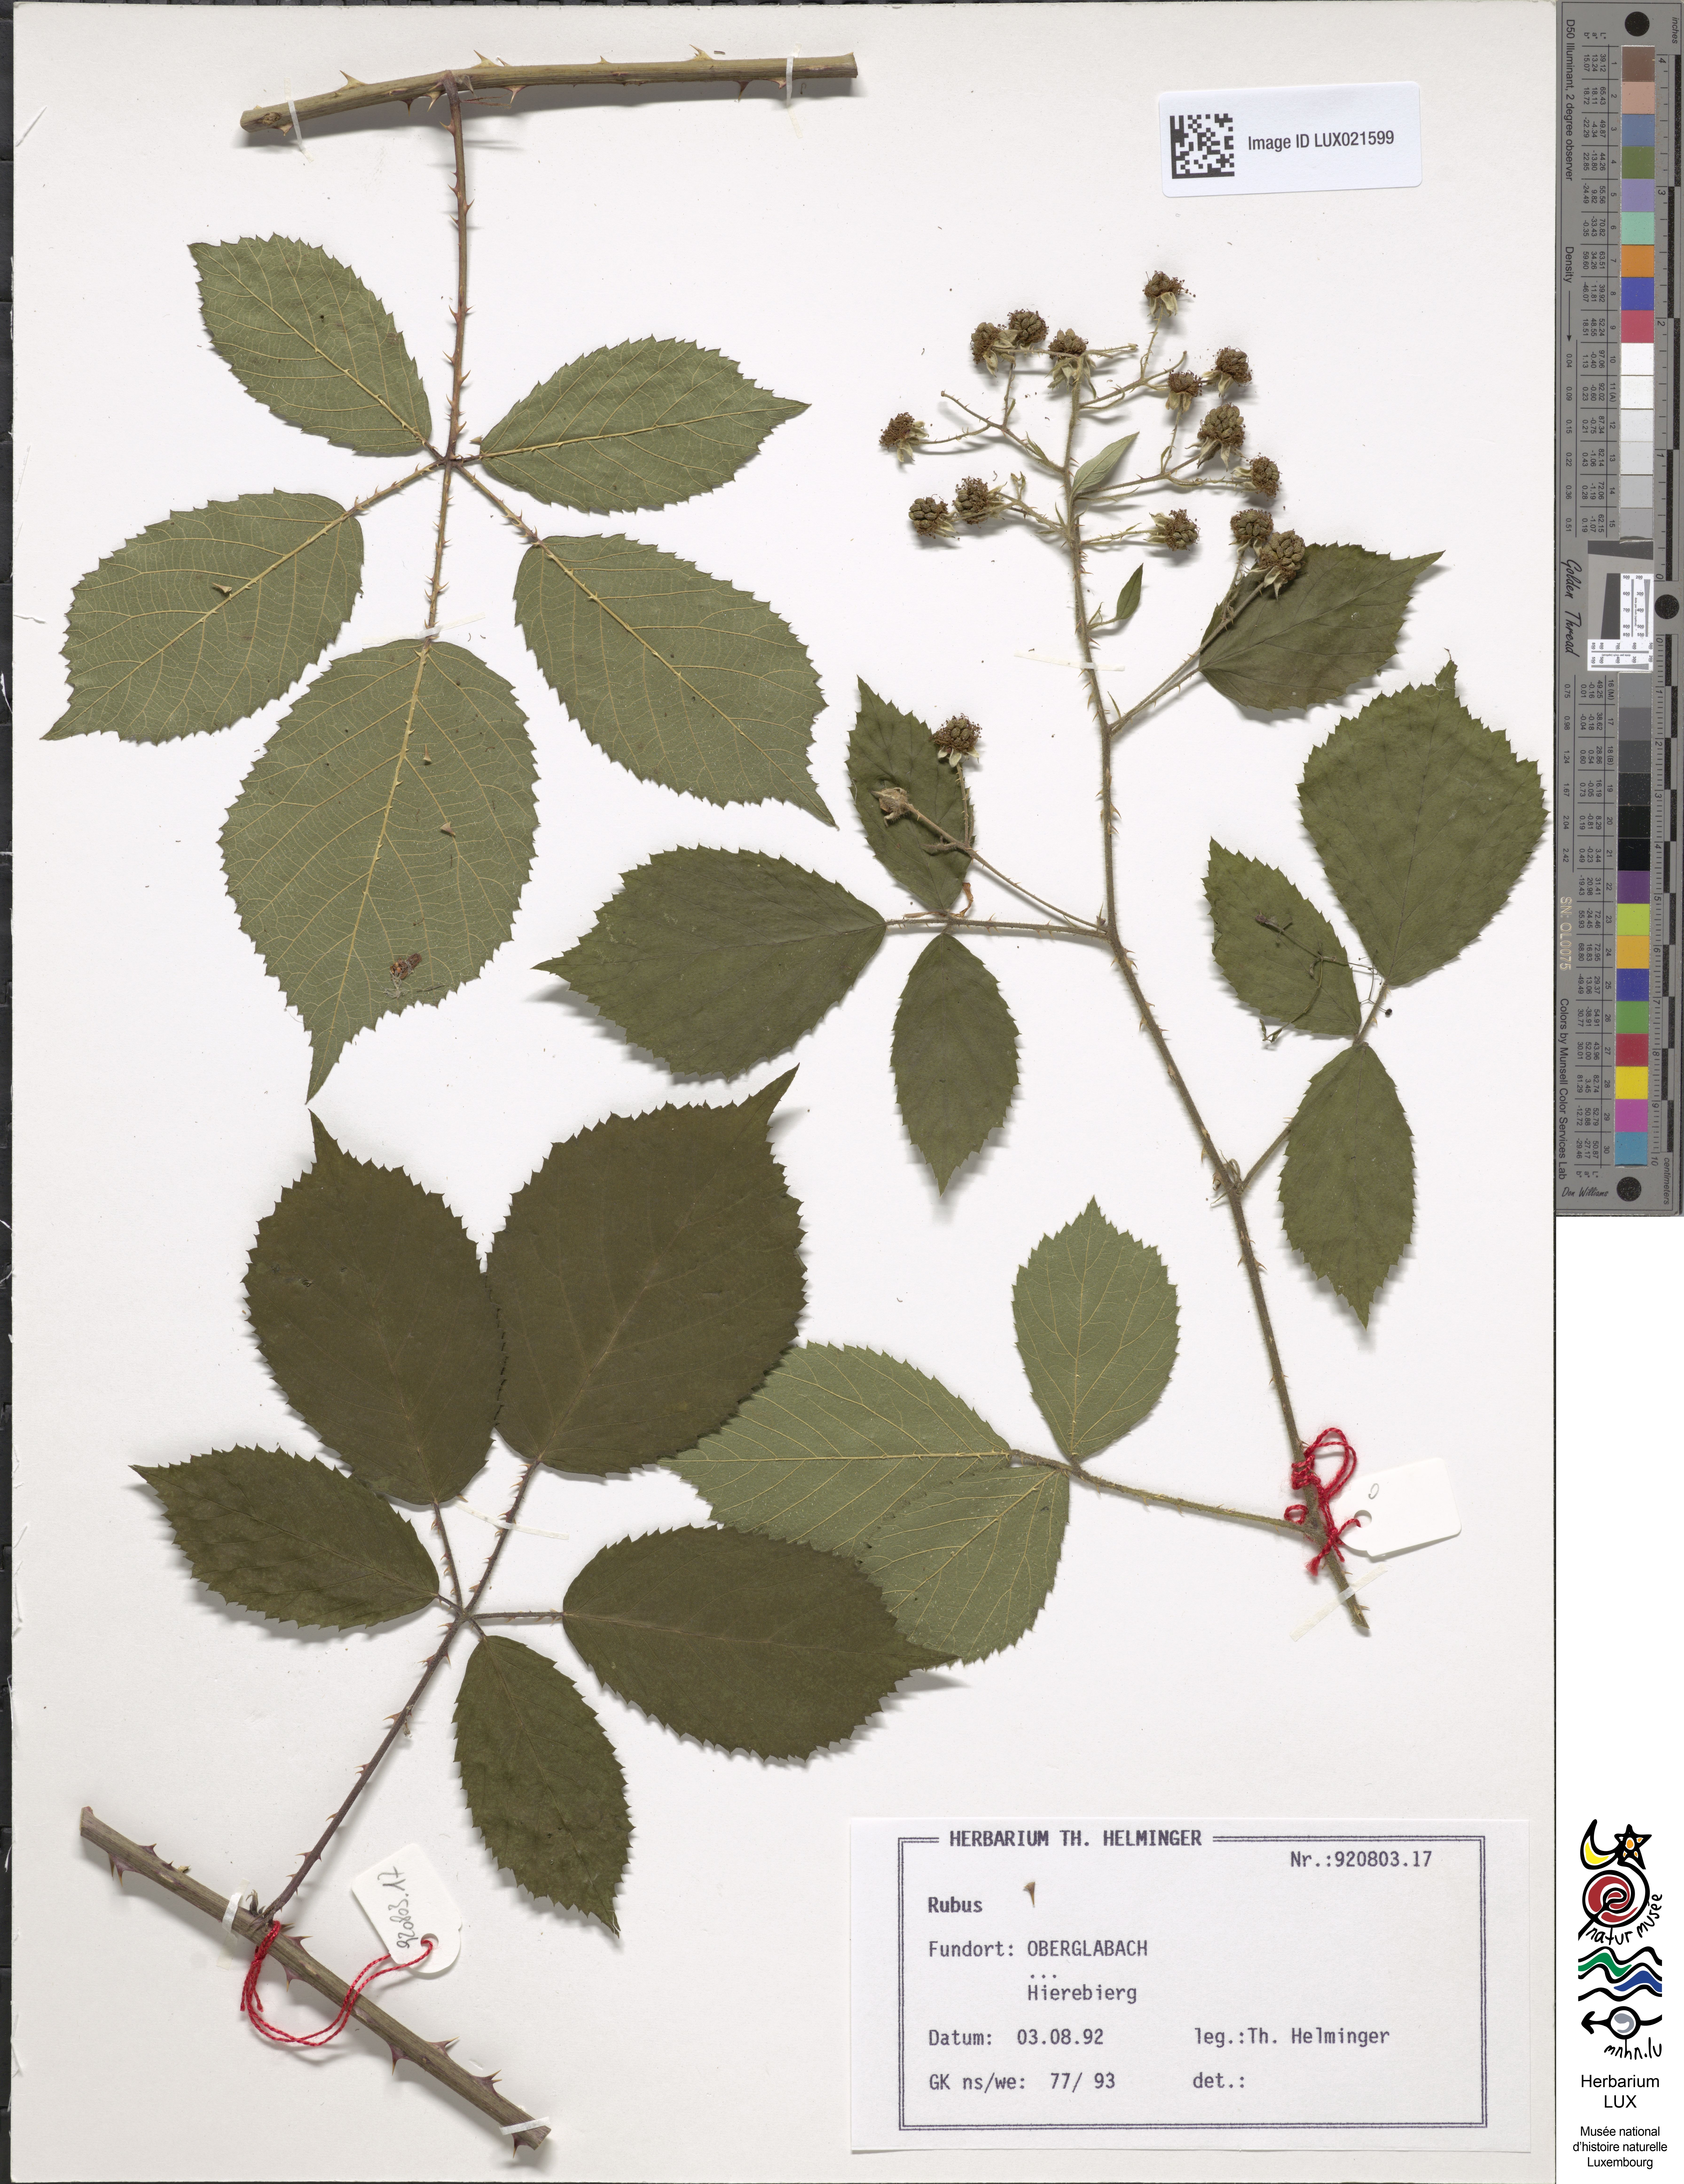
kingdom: Plantae
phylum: Tracheophyta
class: Magnoliopsida
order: Rosales
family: Rosaceae
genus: Rubus
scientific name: Rubus
